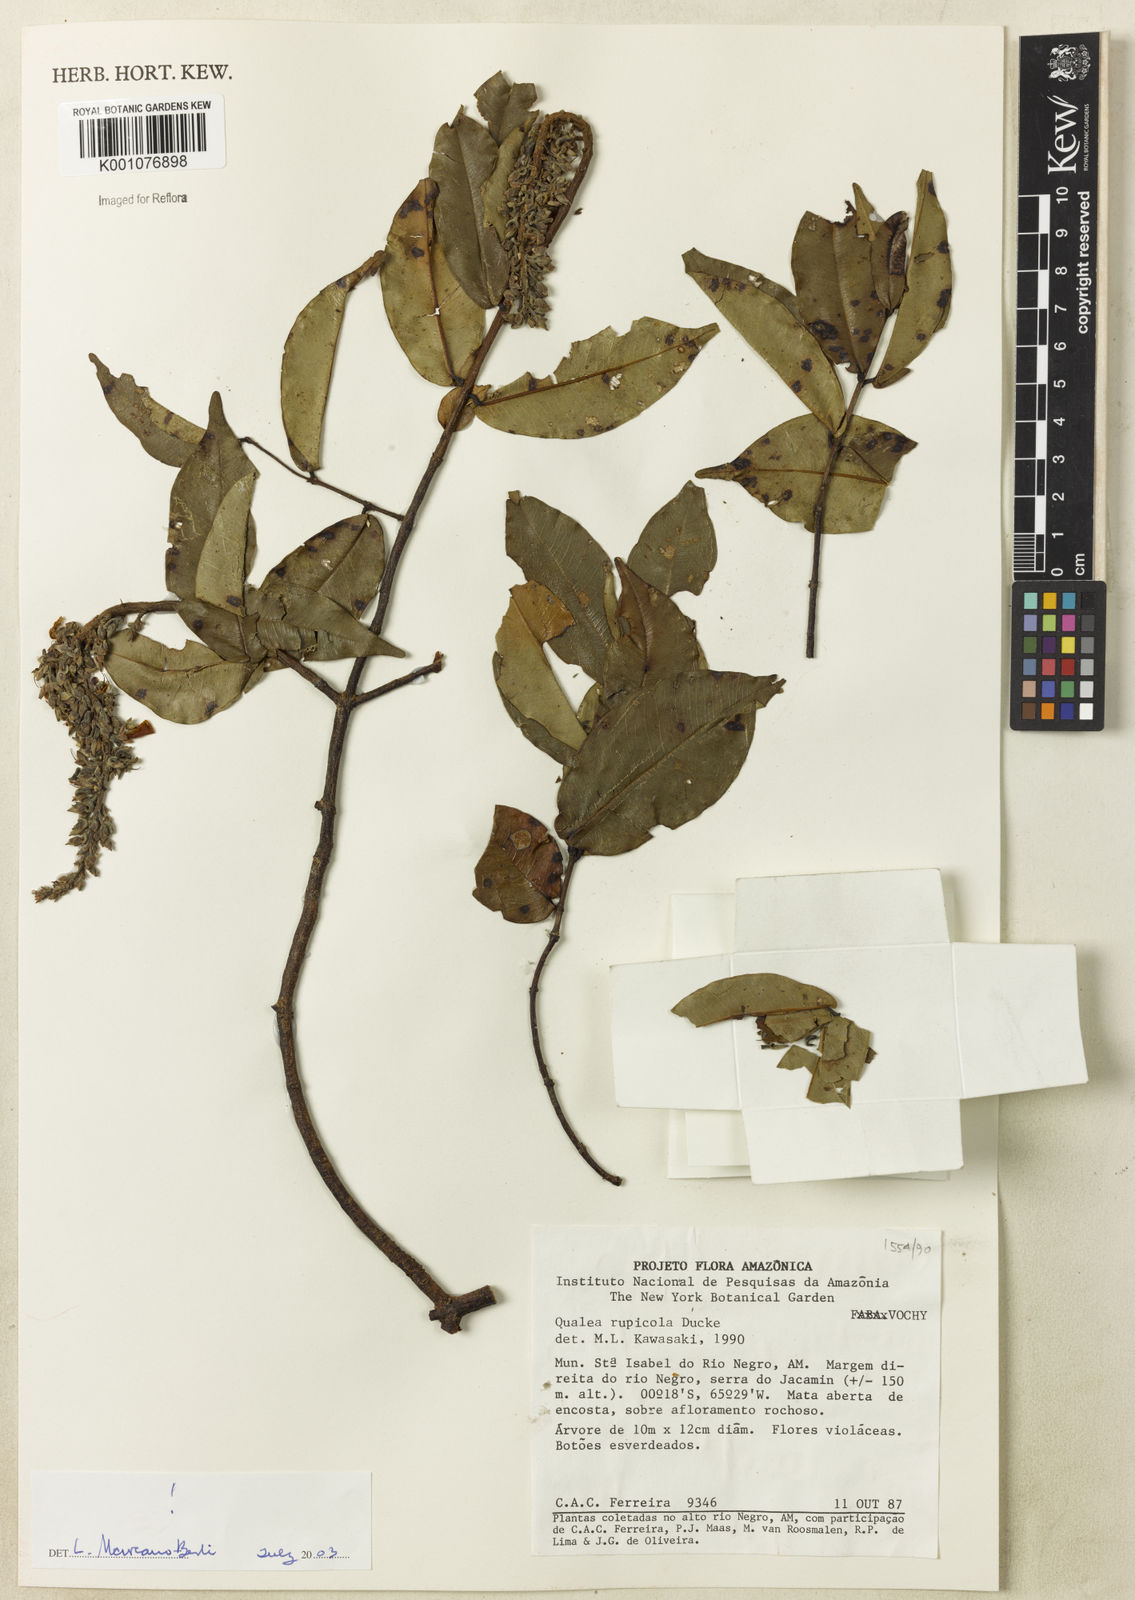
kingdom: Plantae
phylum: Tracheophyta
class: Magnoliopsida
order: Myrtales
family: Vochysiaceae
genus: Qualea
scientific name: Qualea rupicola
